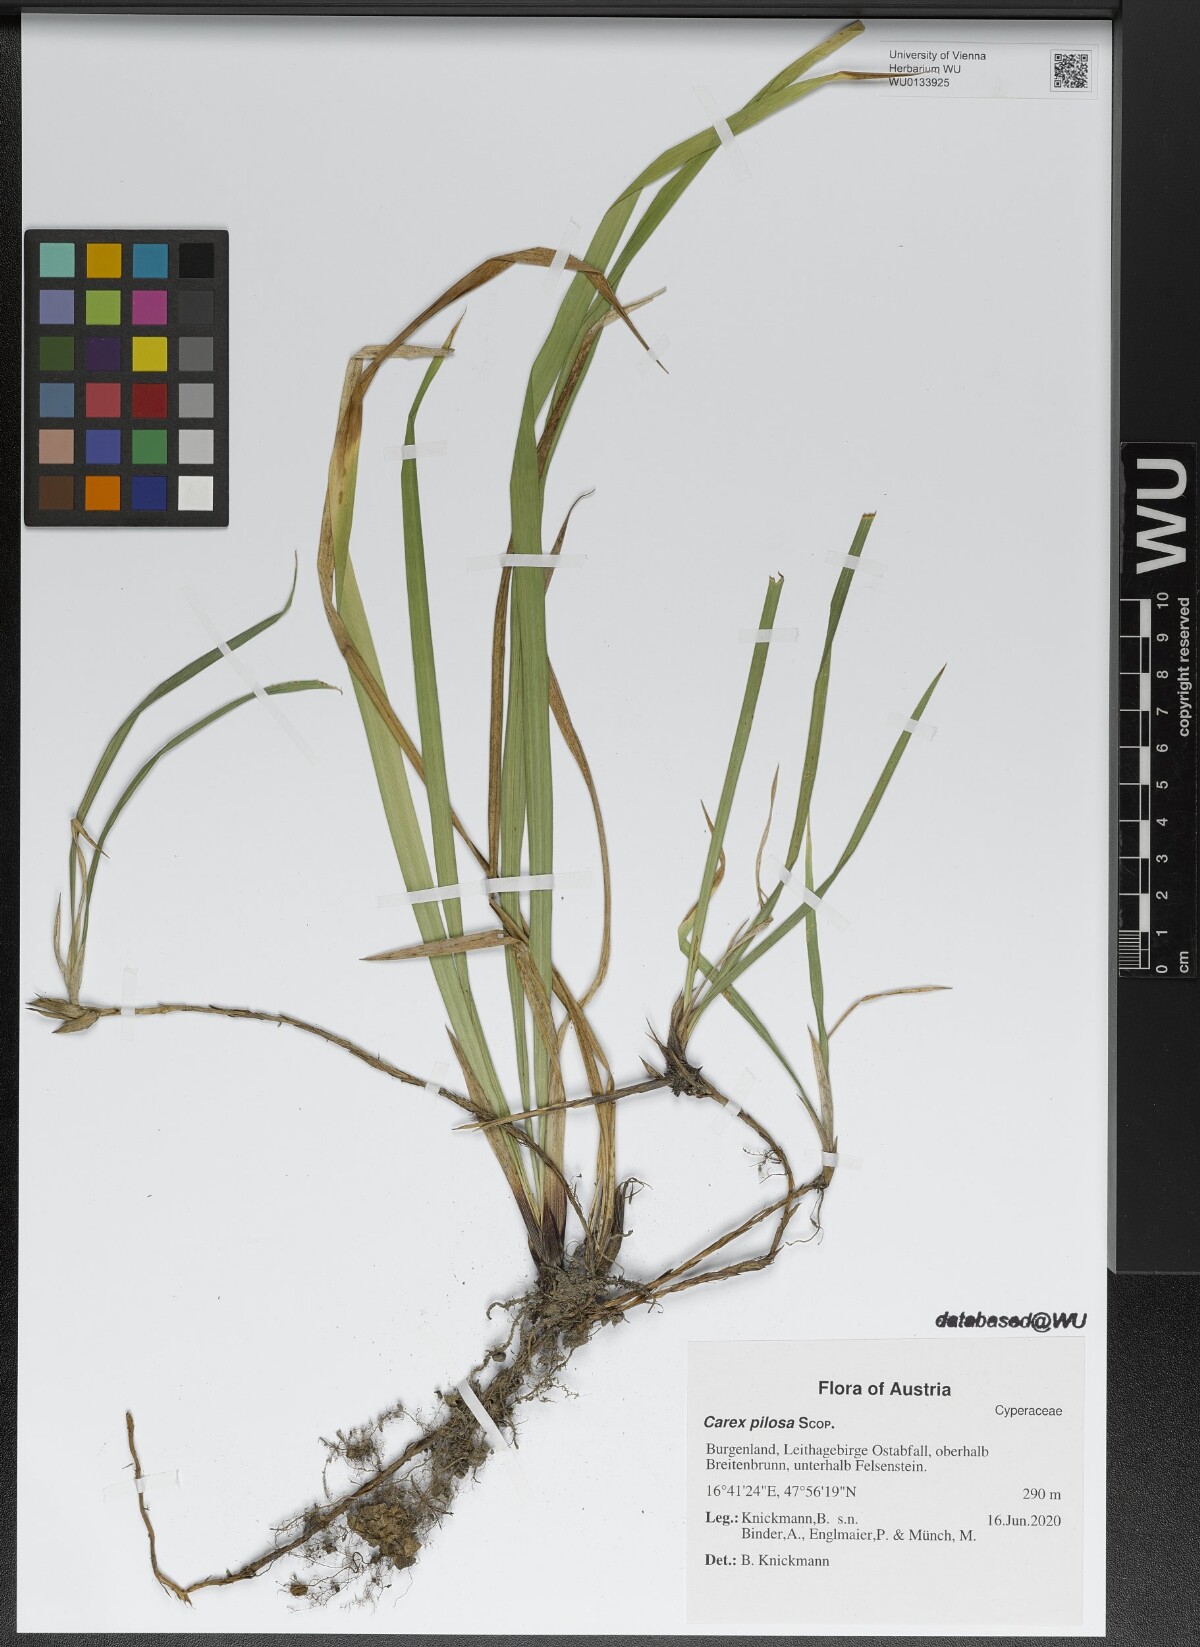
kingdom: Plantae
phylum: Tracheophyta
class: Liliopsida
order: Poales
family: Cyperaceae
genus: Carex
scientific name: Carex pilosa
